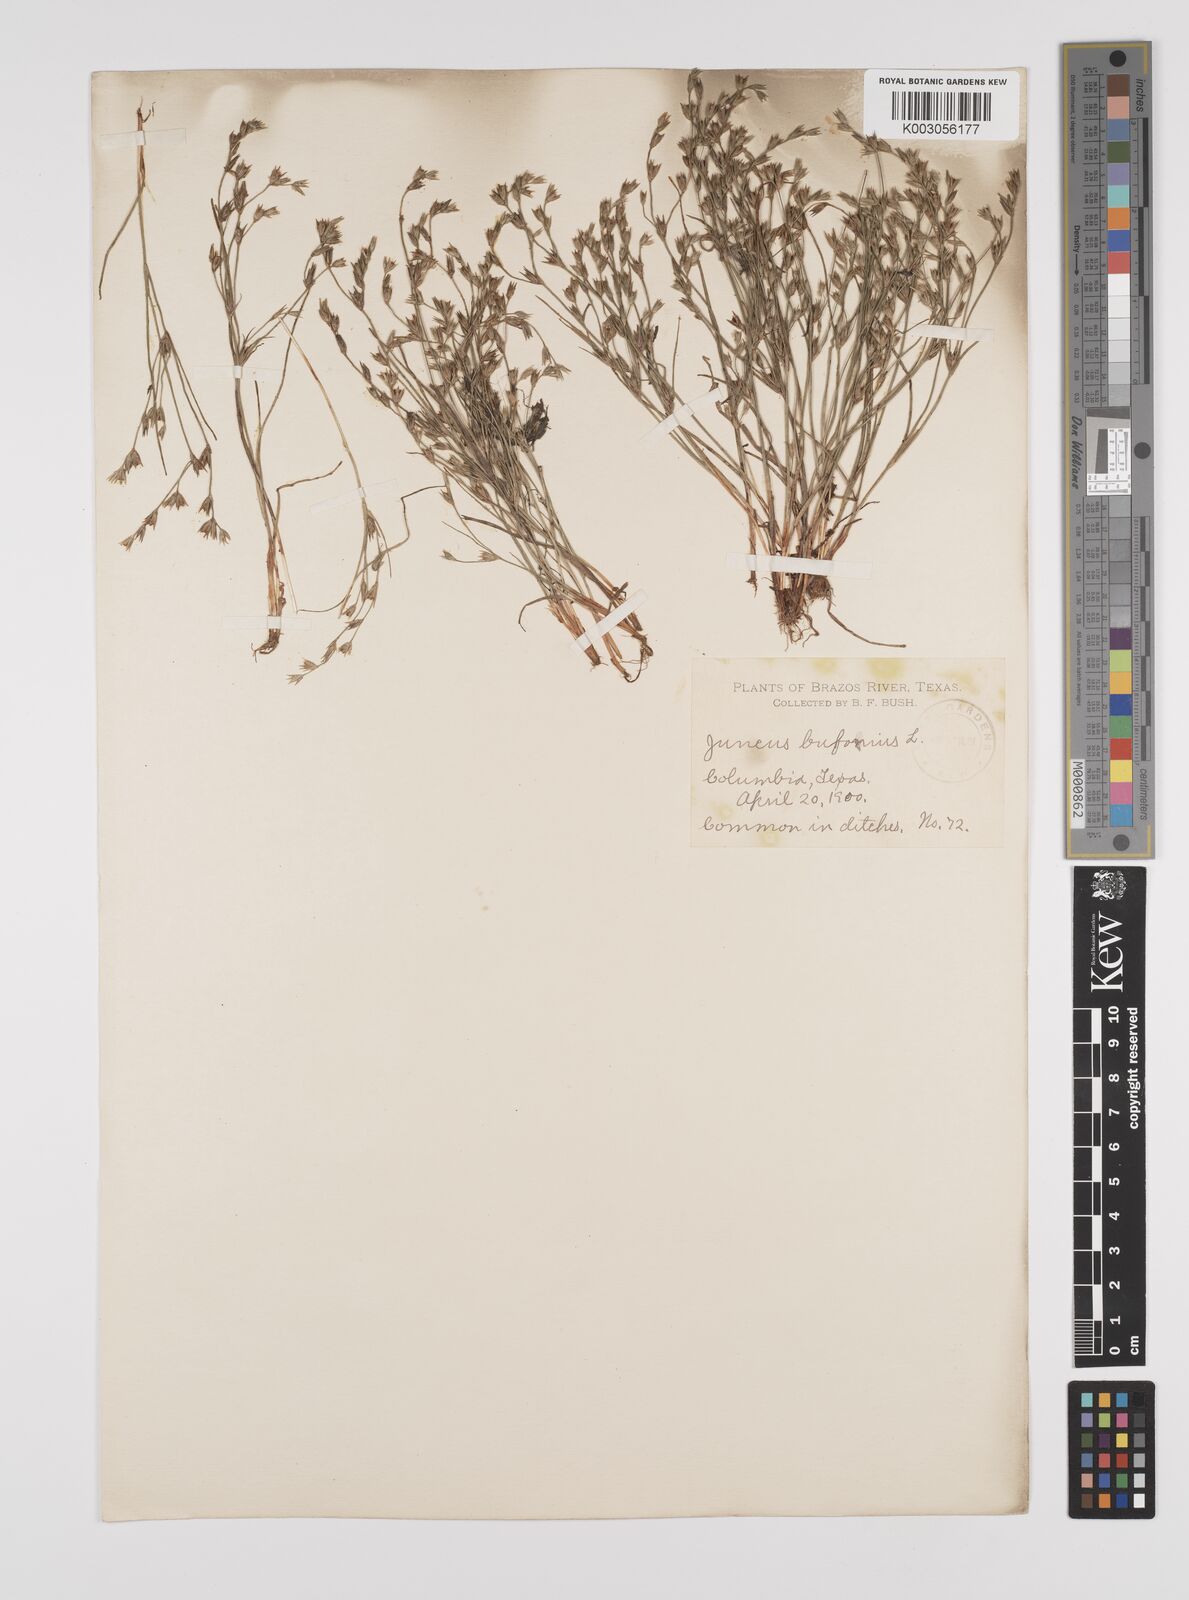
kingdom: Plantae
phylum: Tracheophyta
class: Liliopsida
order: Poales
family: Juncaceae
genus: Juncus
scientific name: Juncus bufonius
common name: Toad rush
